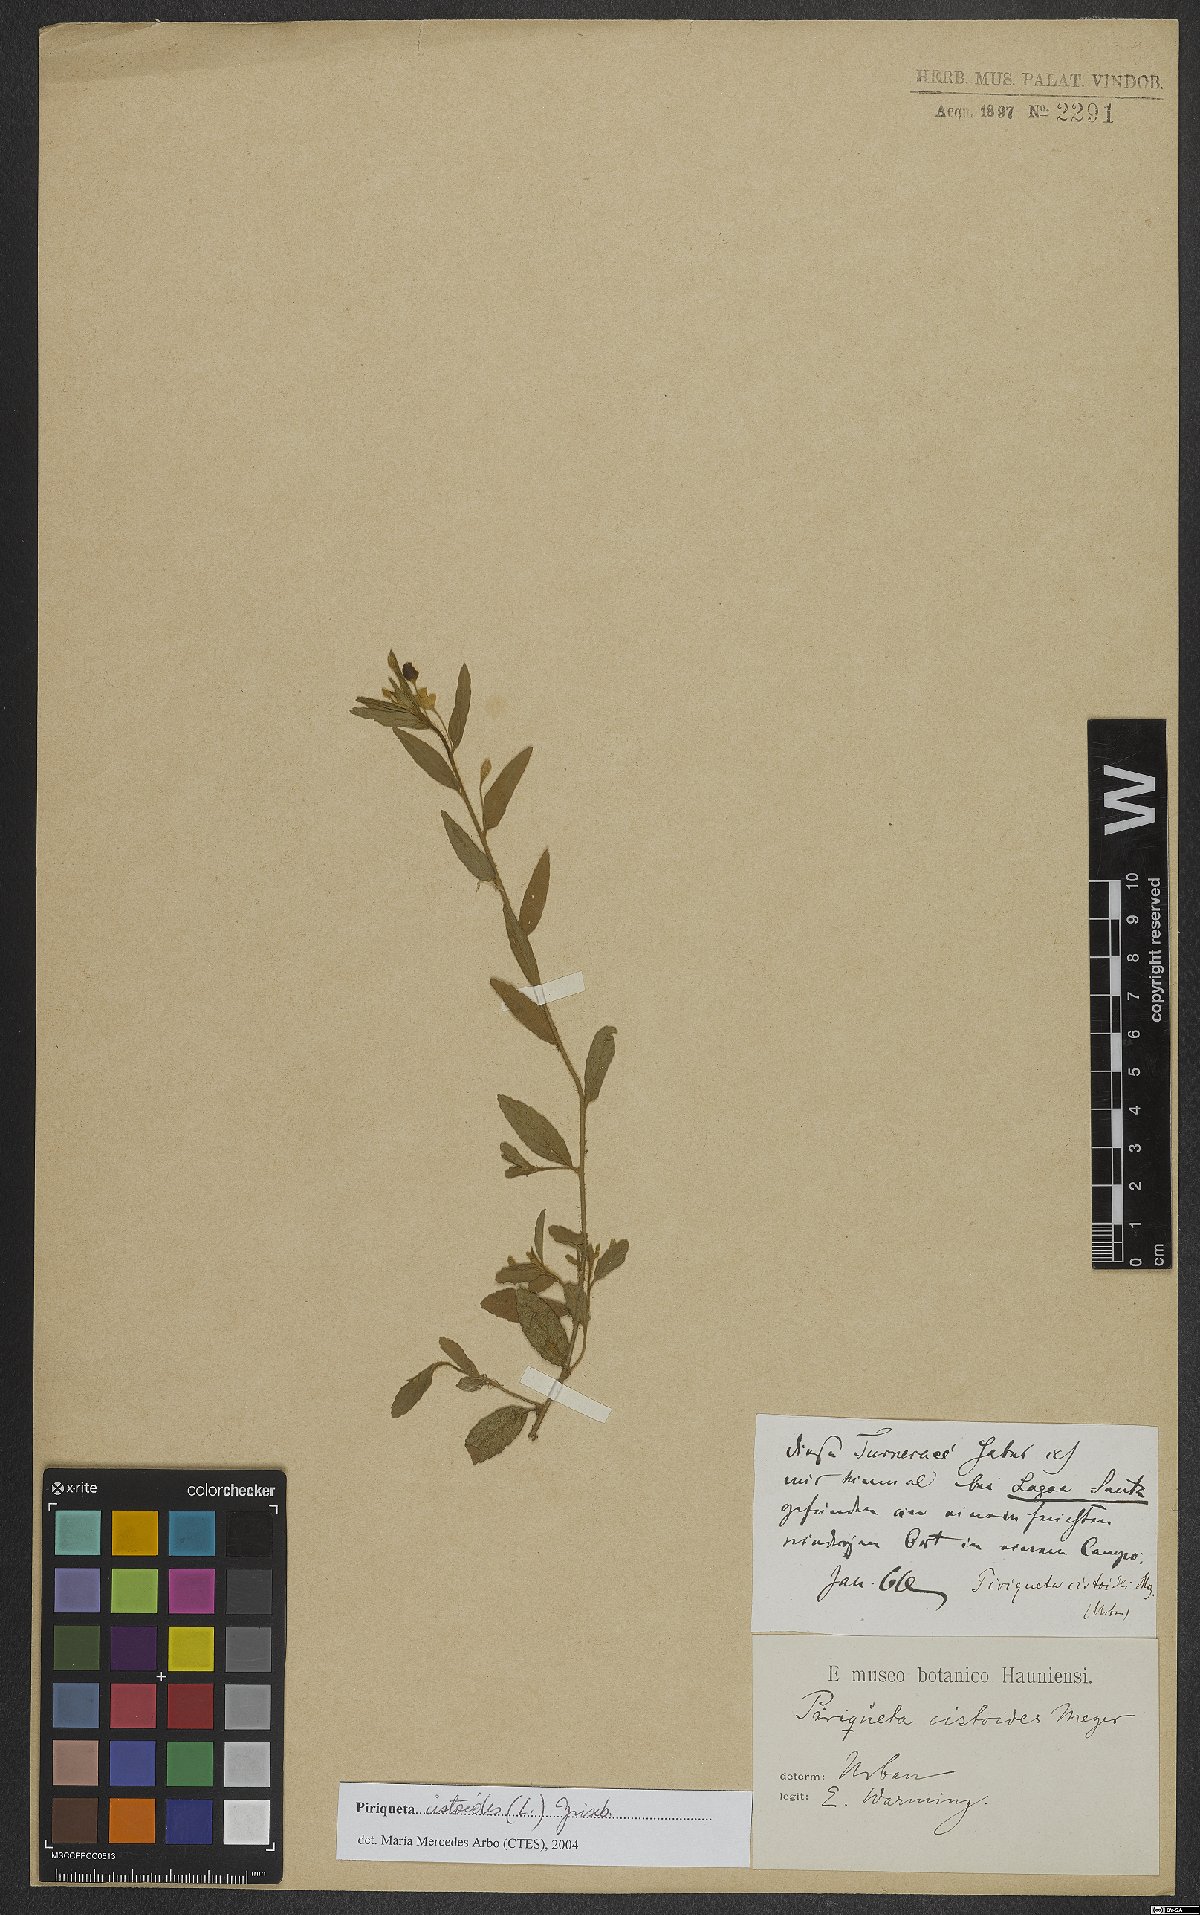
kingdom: Plantae
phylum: Tracheophyta
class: Magnoliopsida
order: Malpighiales
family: Turneraceae
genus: Piriqueta
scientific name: Piriqueta cistoides
